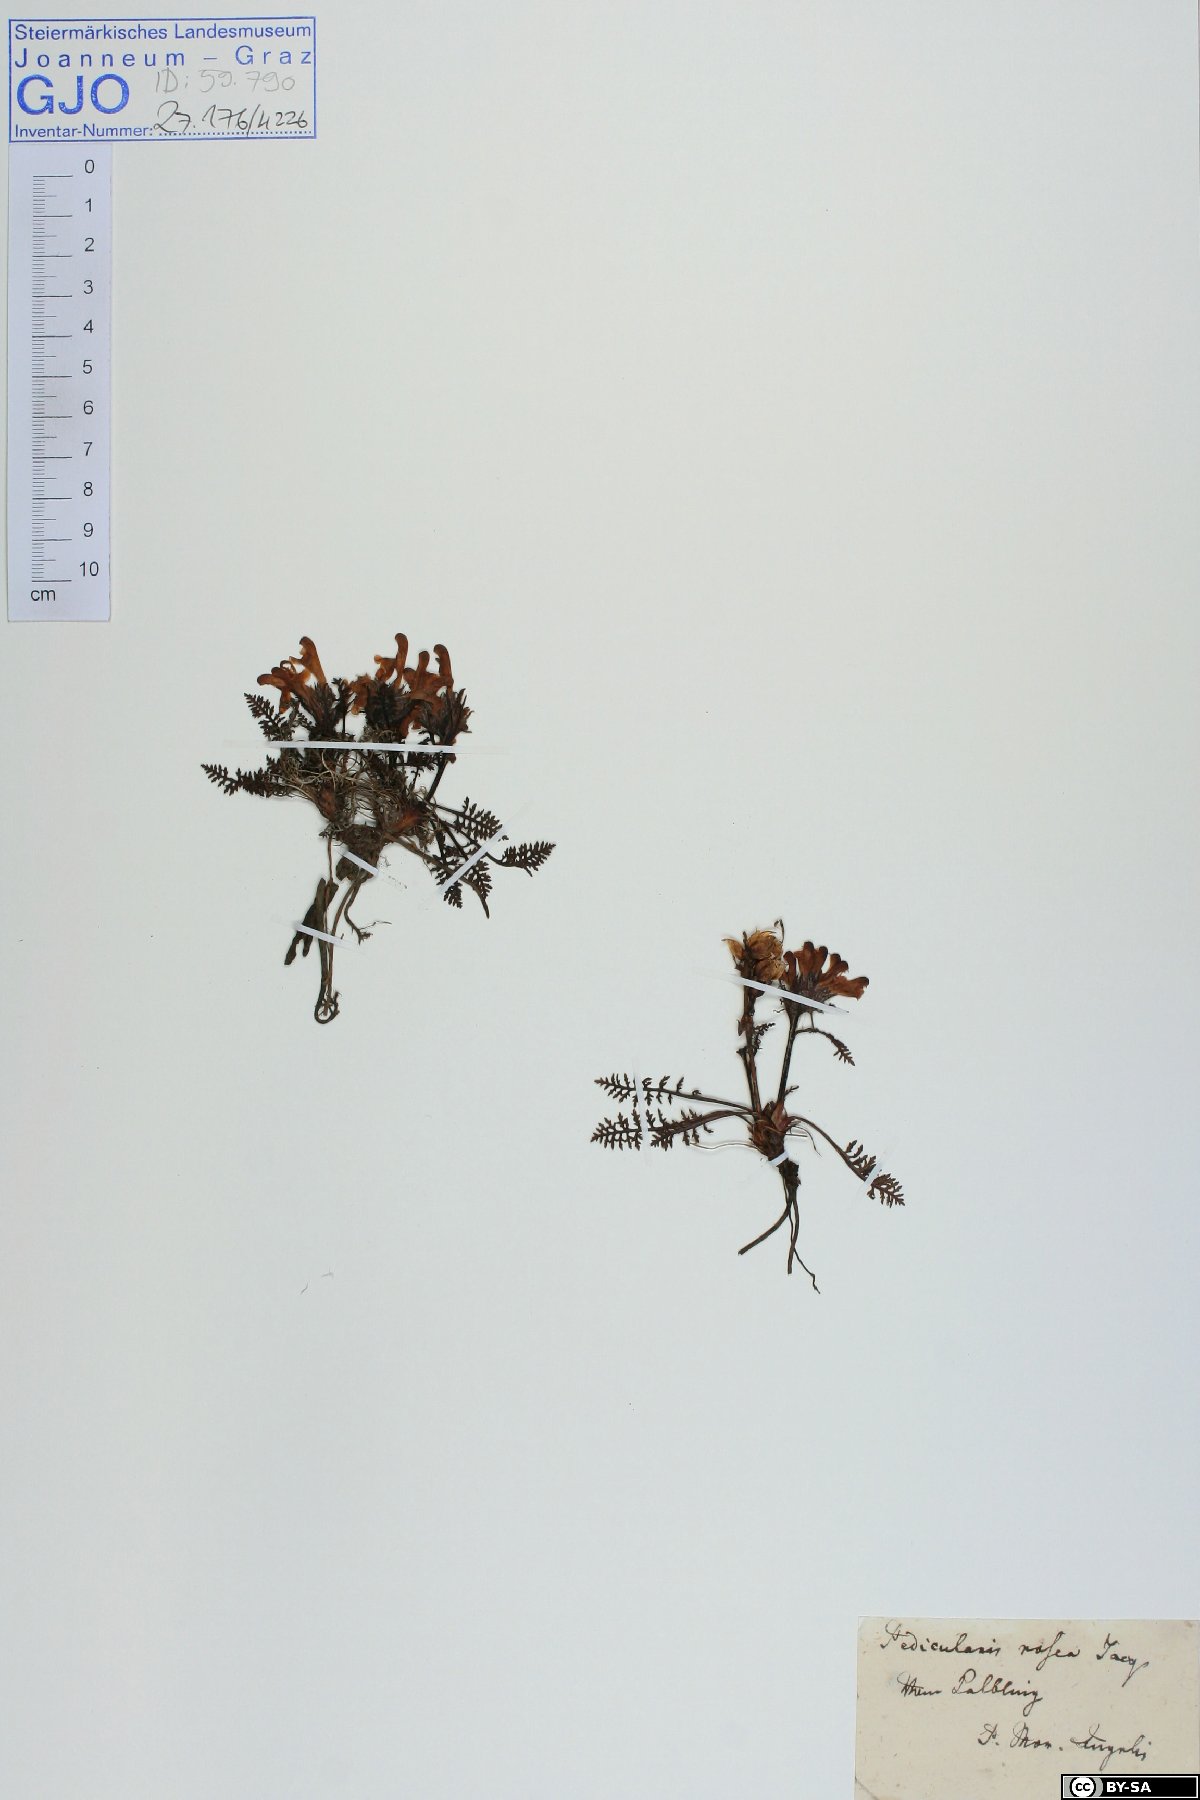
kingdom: Plantae
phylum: Tracheophyta
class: Magnoliopsida
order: Lamiales
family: Orobanchaceae
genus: Pedicularis
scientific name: Pedicularis rosea
